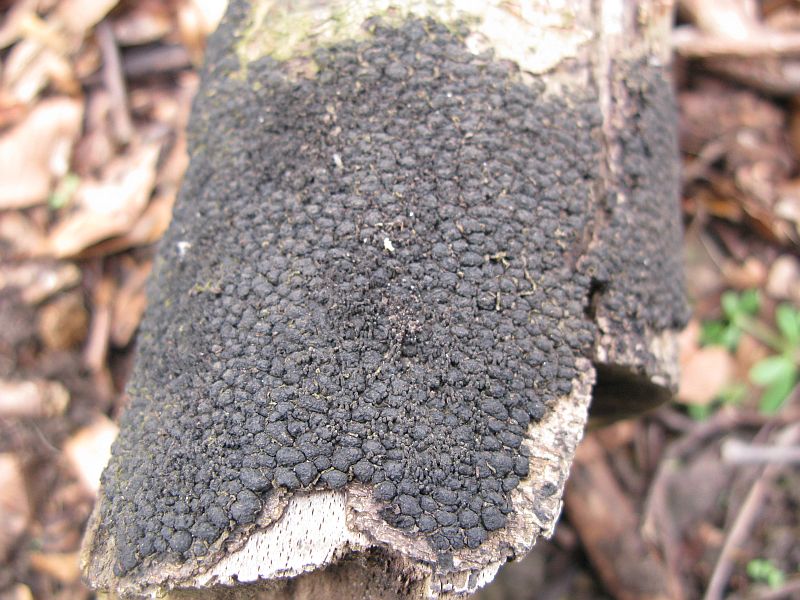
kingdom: Fungi
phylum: Ascomycota
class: Sordariomycetes
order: Xylariales
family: Diatrypaceae
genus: Diatrype
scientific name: Diatrype disciformis
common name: kant-kulskorpe
